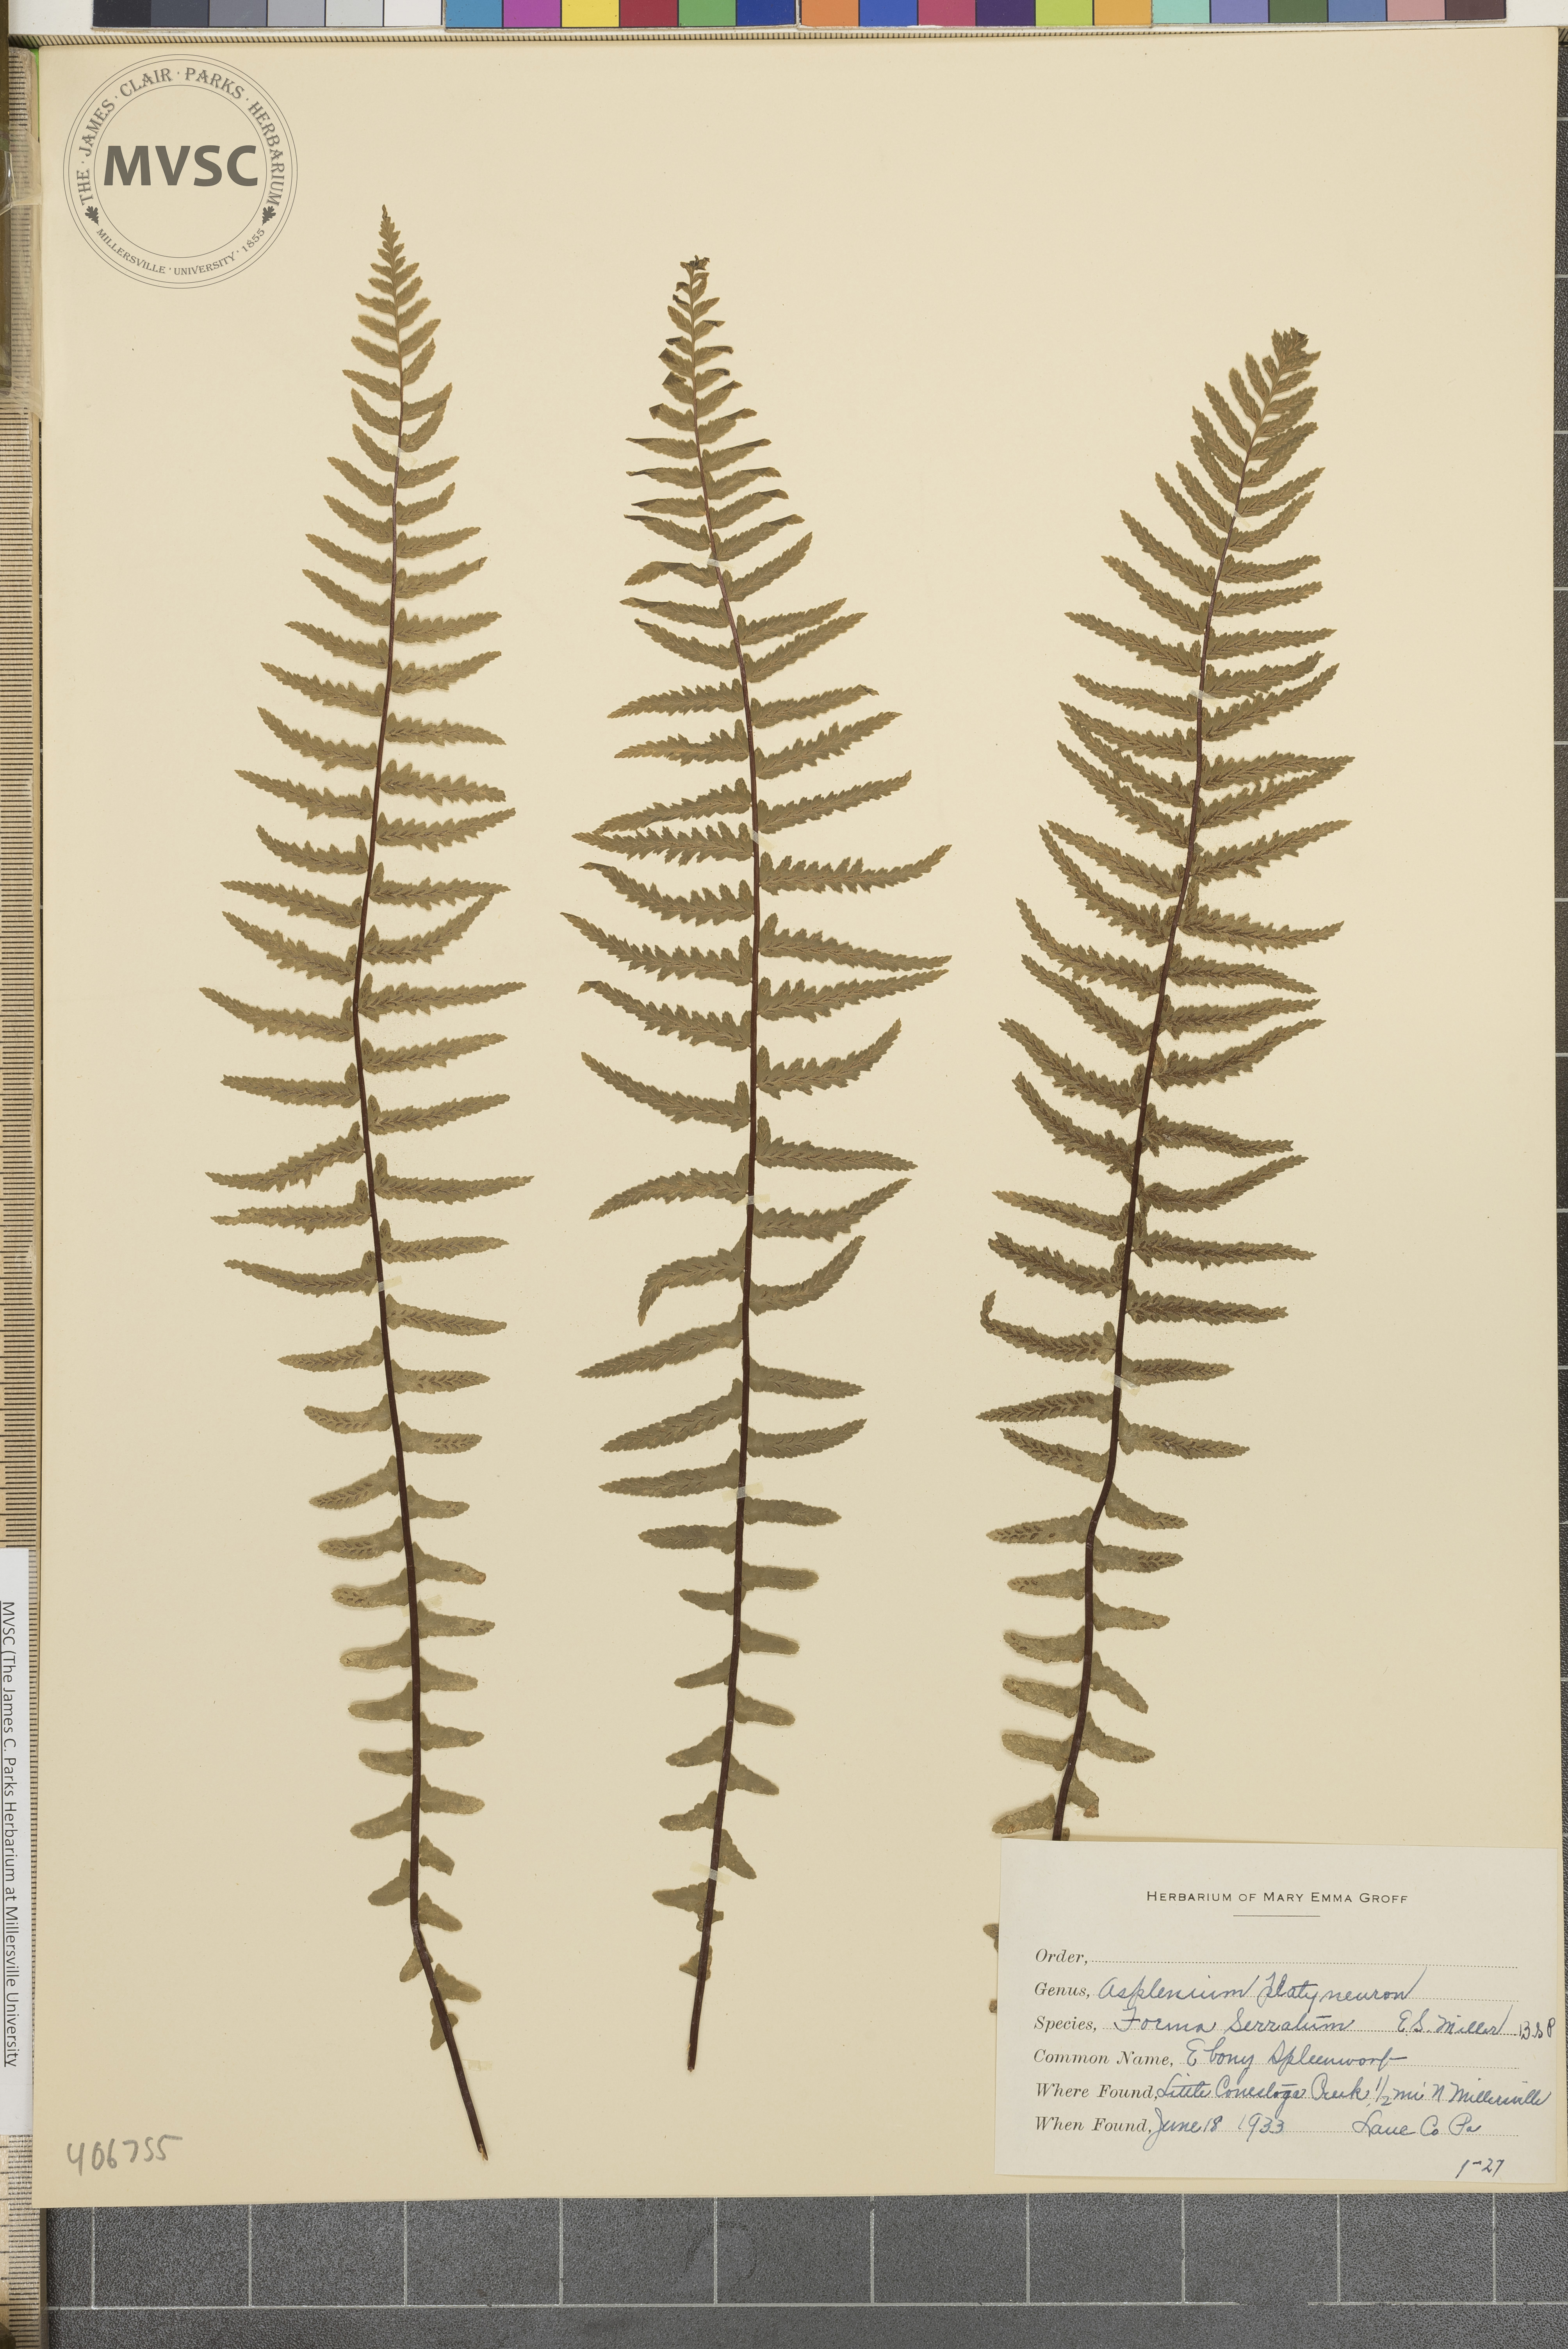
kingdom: Plantae
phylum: Tracheophyta
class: Polypodiopsida
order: Polypodiales
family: Aspleniaceae
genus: Asplenium
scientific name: Asplenium platyneuron
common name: Ebony spleenwort
